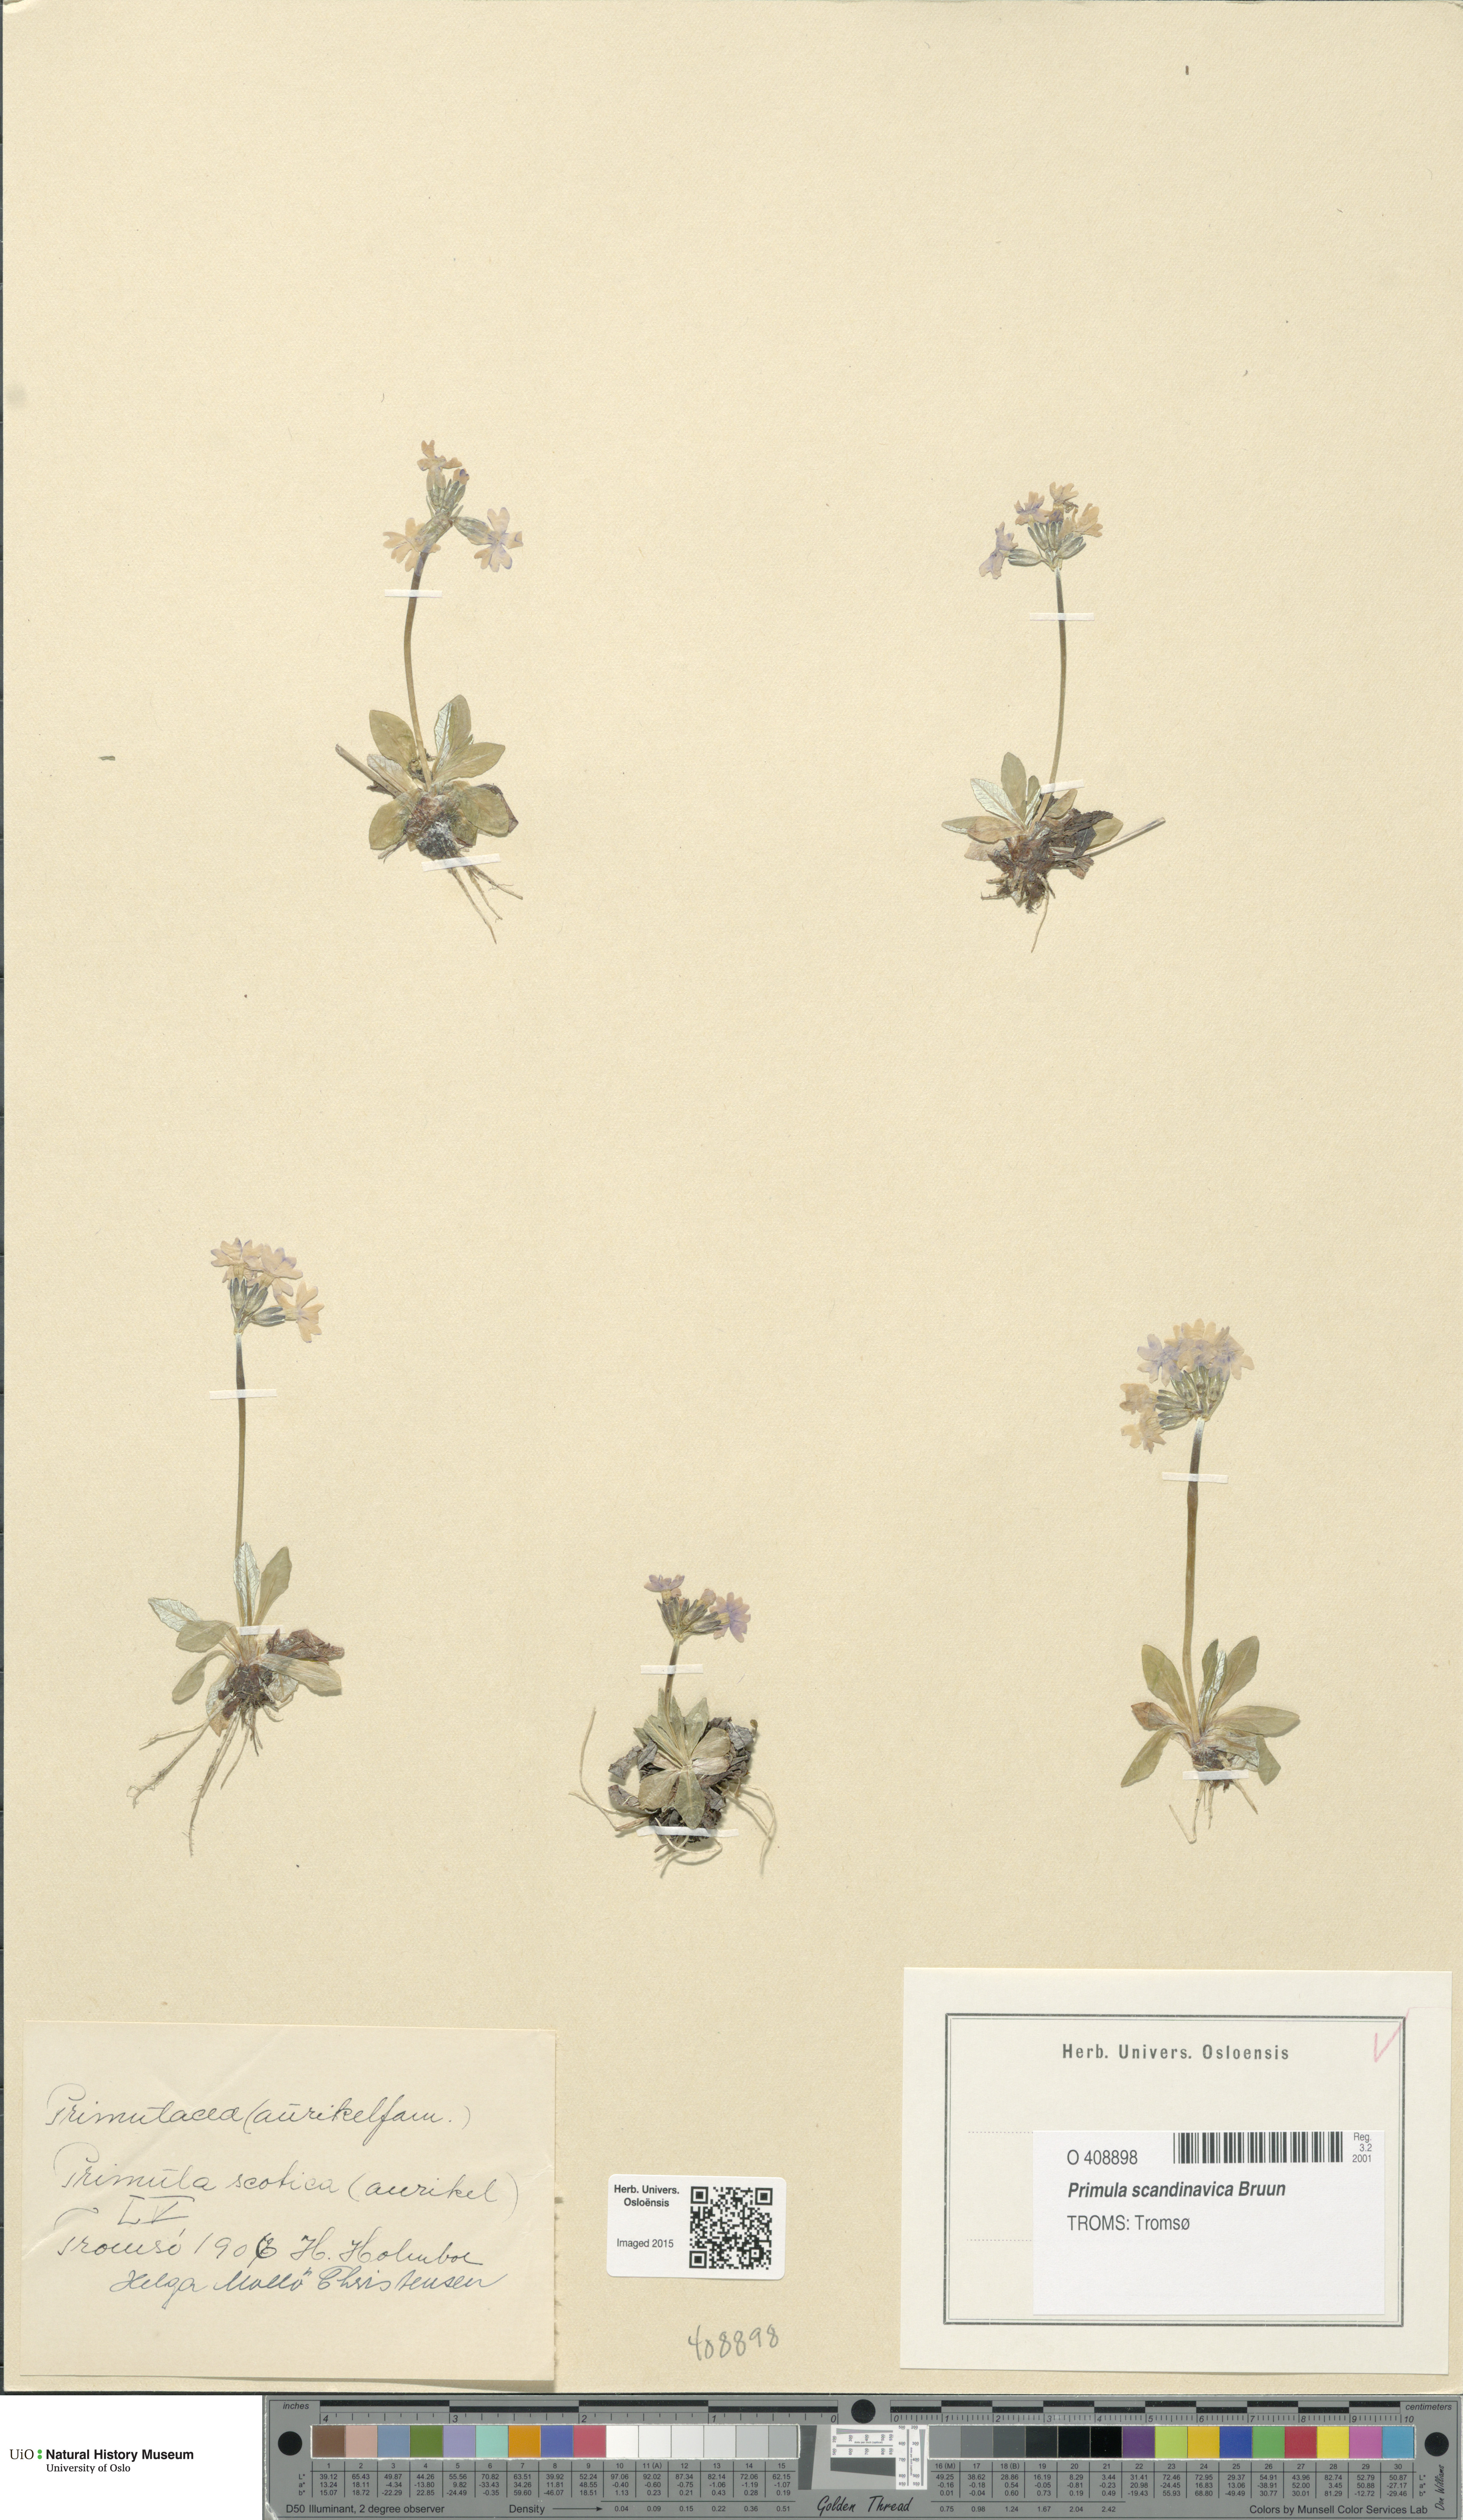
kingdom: Plantae
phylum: Tracheophyta
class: Magnoliopsida
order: Ericales
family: Primulaceae
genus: Primula
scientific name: Primula scandinavica
